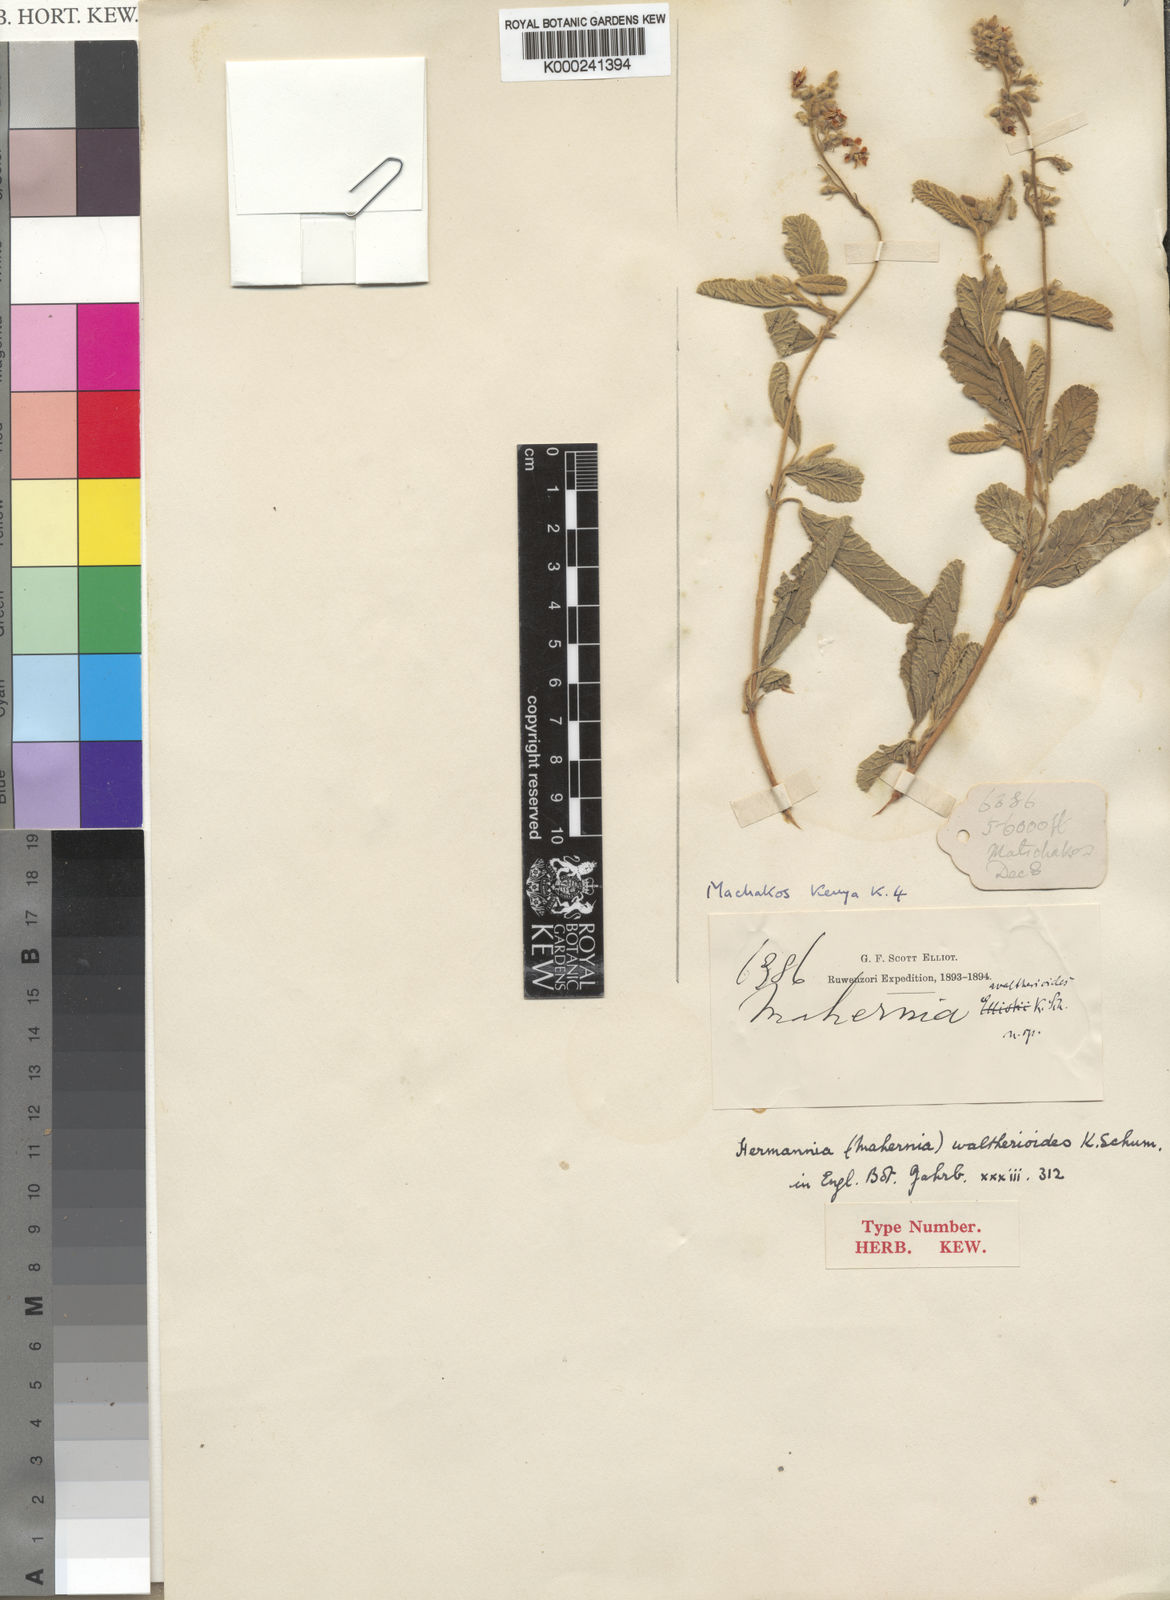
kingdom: Plantae
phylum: Tracheophyta
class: Magnoliopsida
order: Malvales
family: Malvaceae
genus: Hermannia
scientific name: Hermannia waltherioides
